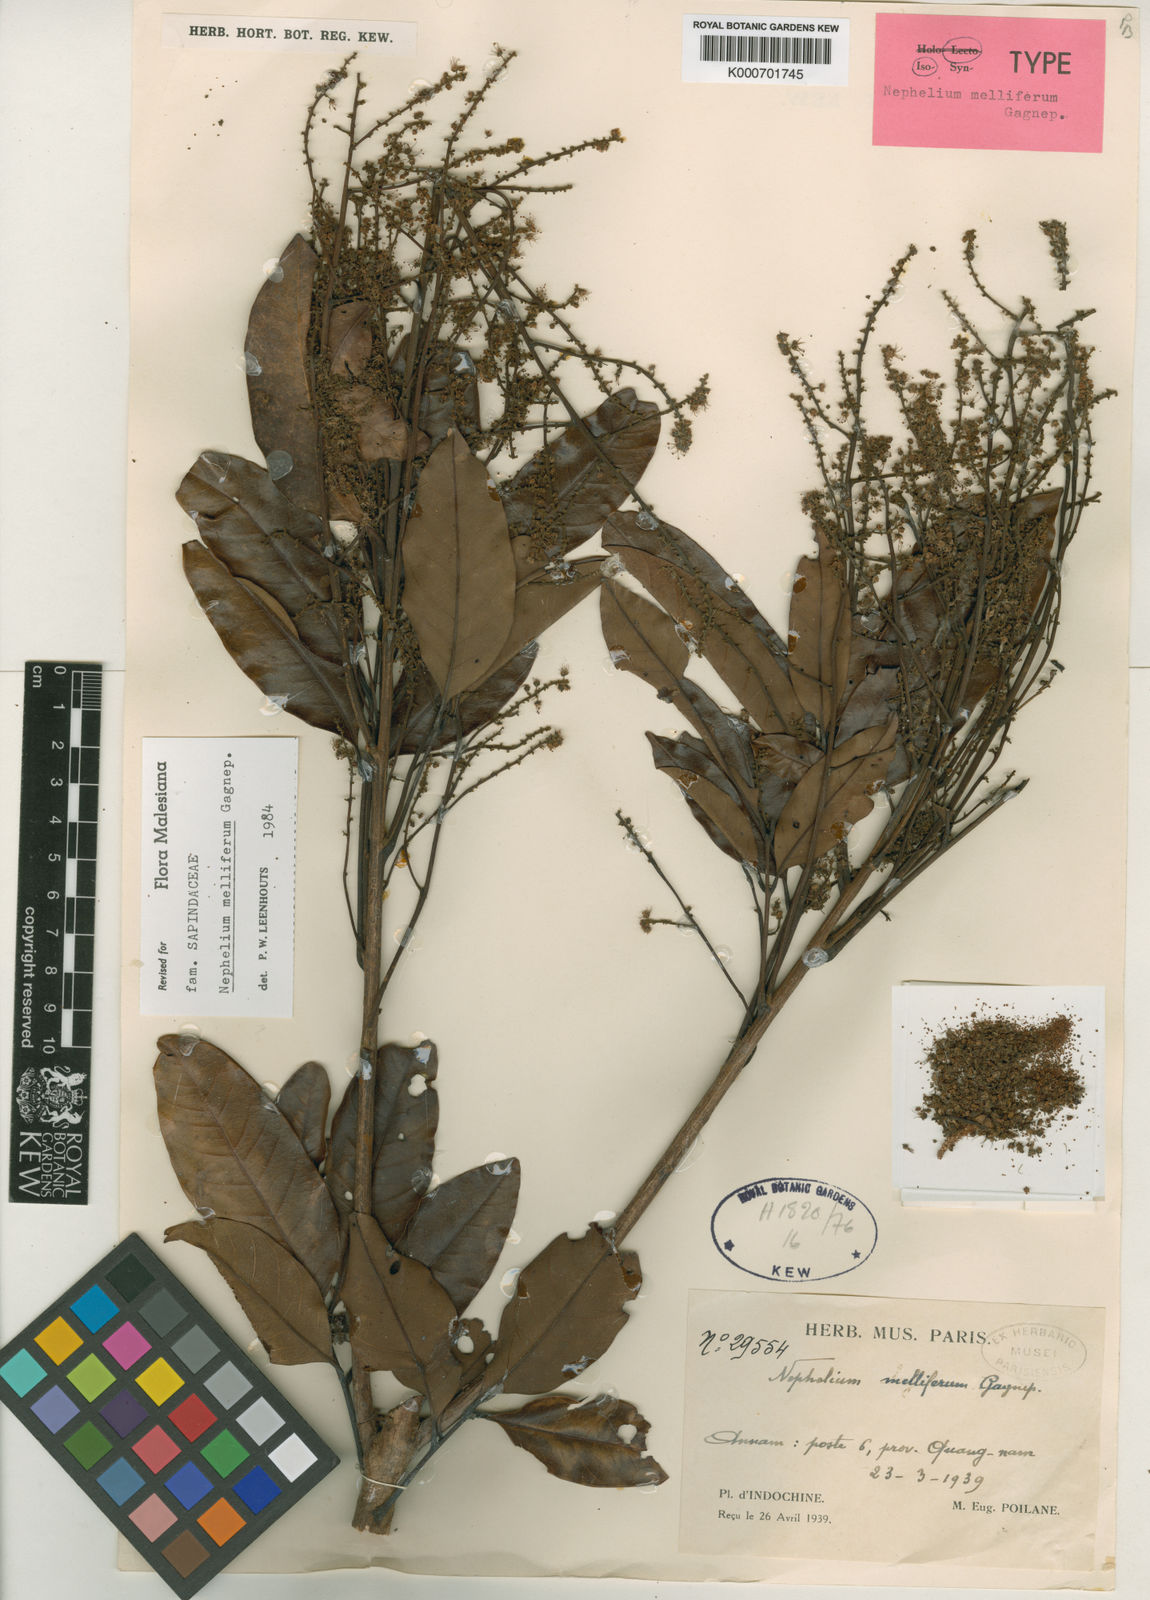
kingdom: Plantae
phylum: Tracheophyta
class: Magnoliopsida
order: Sapindales
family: Sapindaceae
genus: Nephelium
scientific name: Nephelium melliferum
